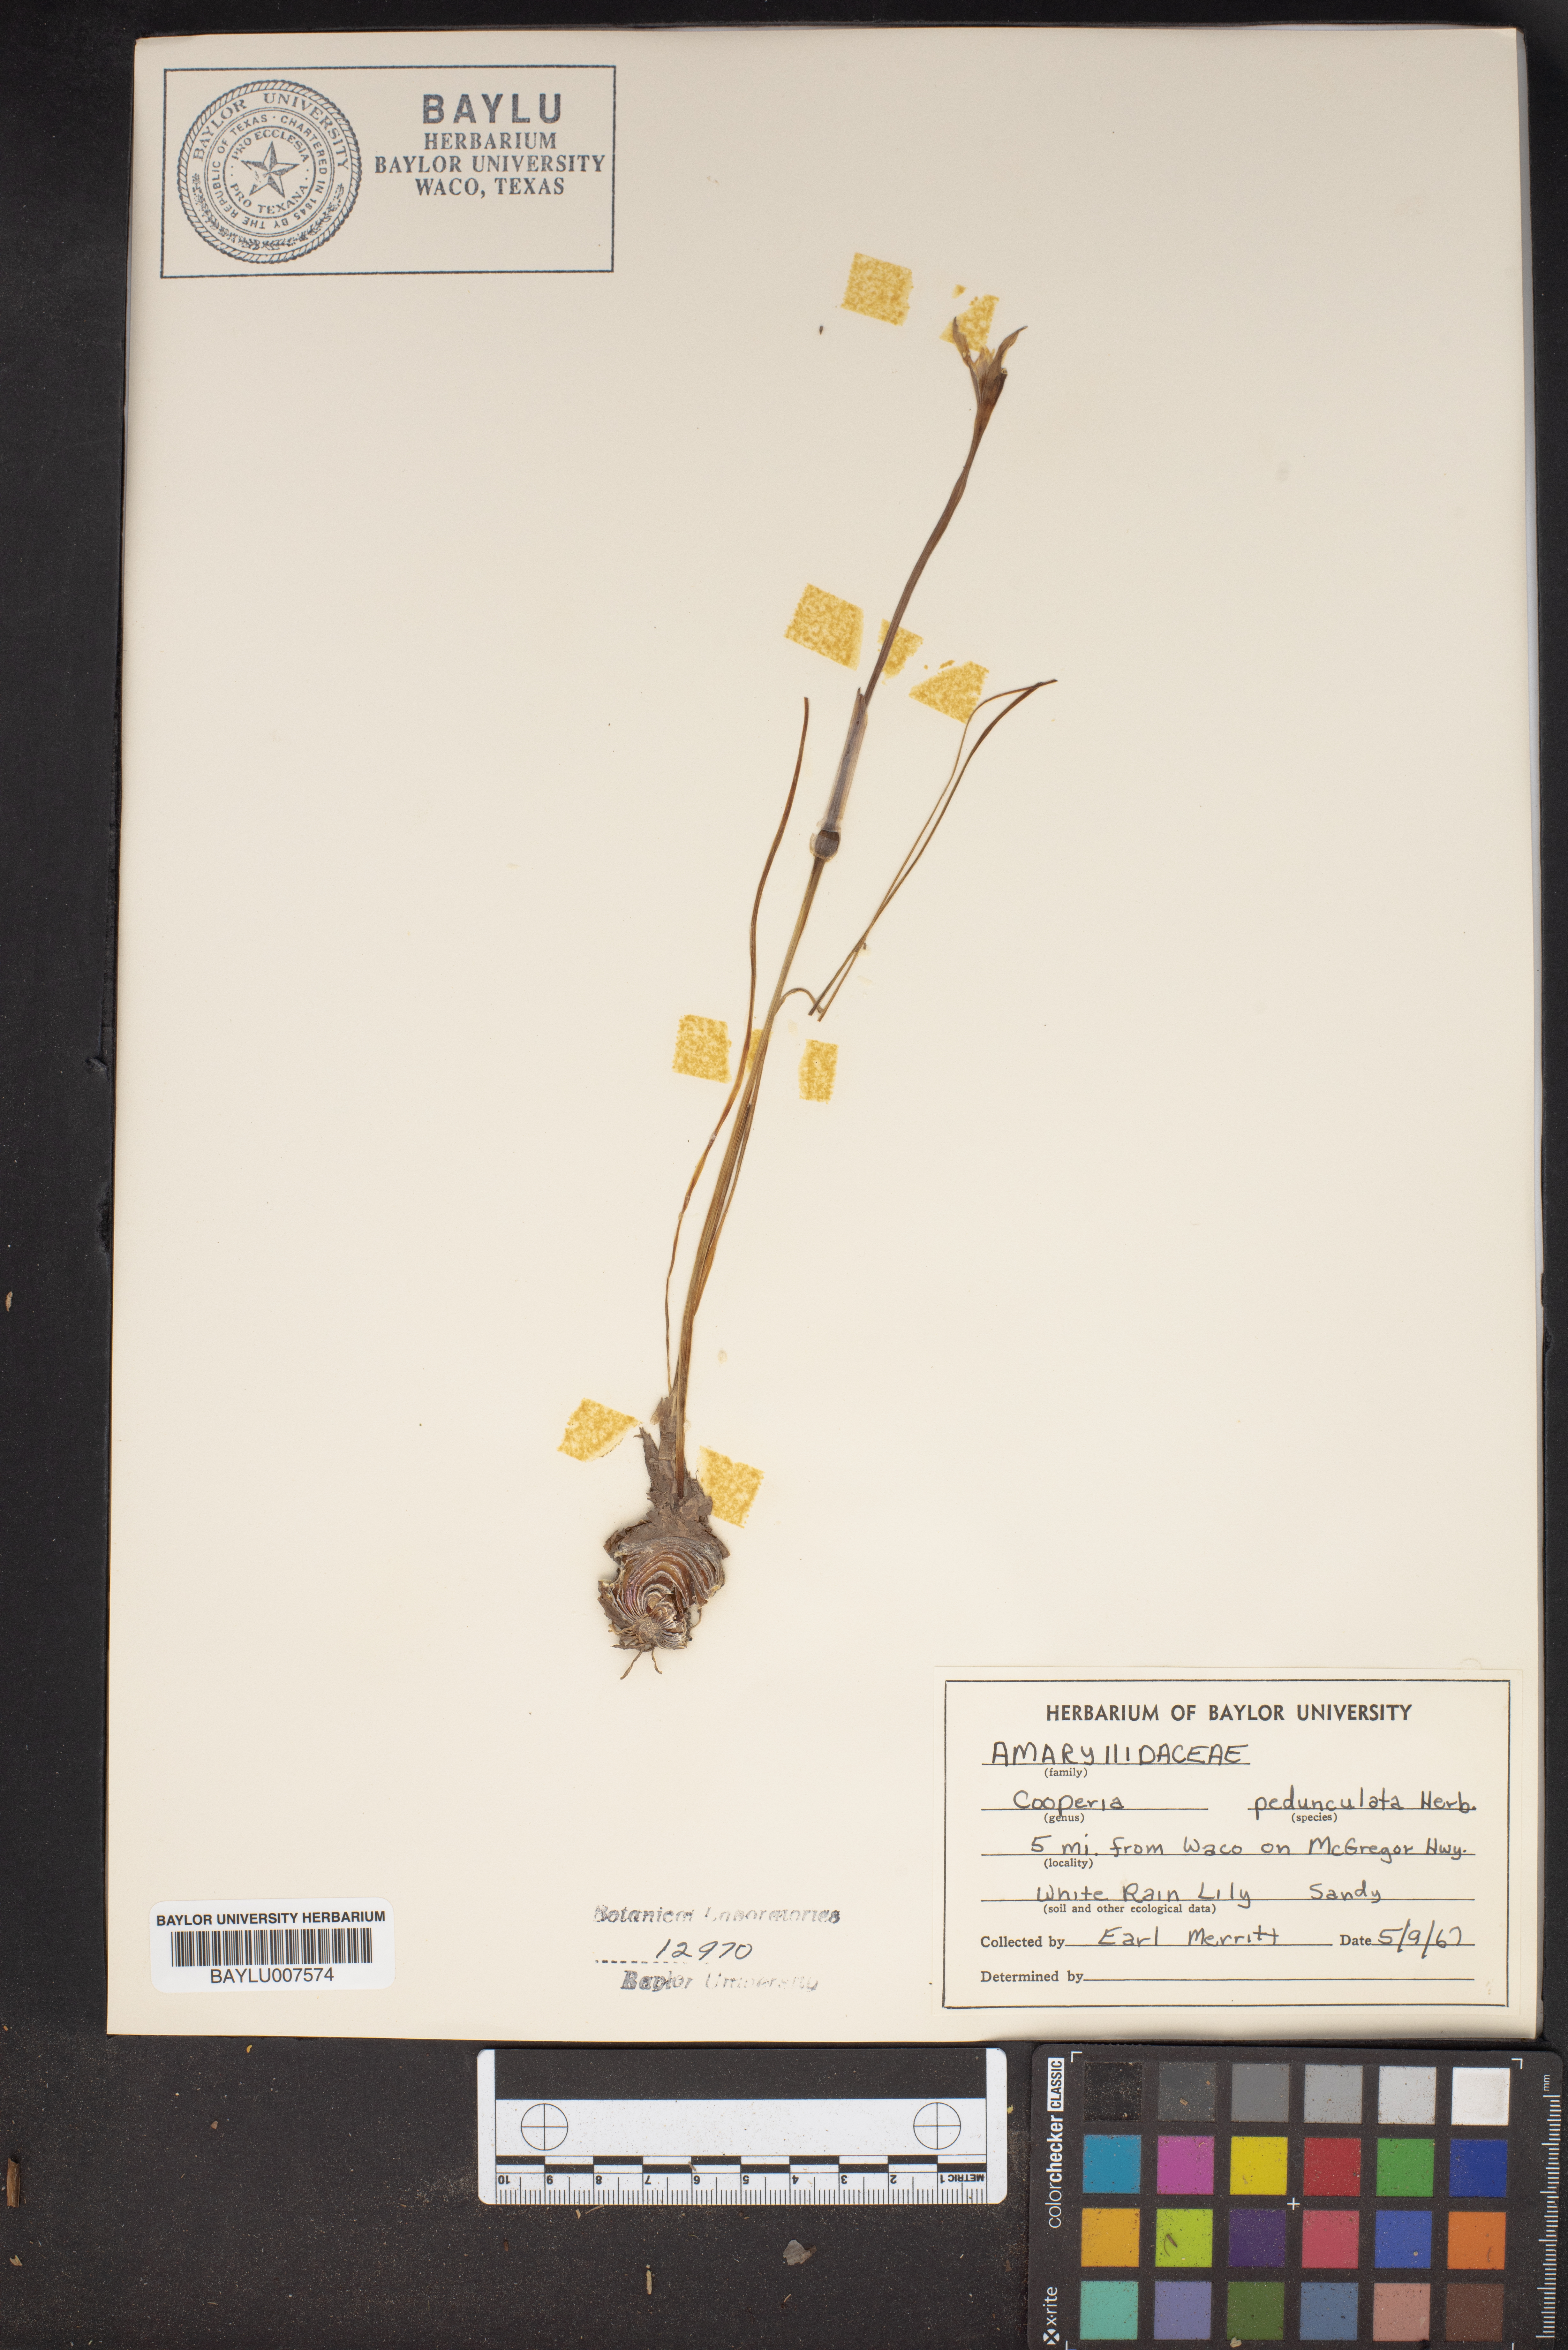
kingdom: Plantae
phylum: Tracheophyta
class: Liliopsida
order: Asparagales
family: Amaryllidaceae
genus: Zephyranthes
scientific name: Zephyranthes drummondii
